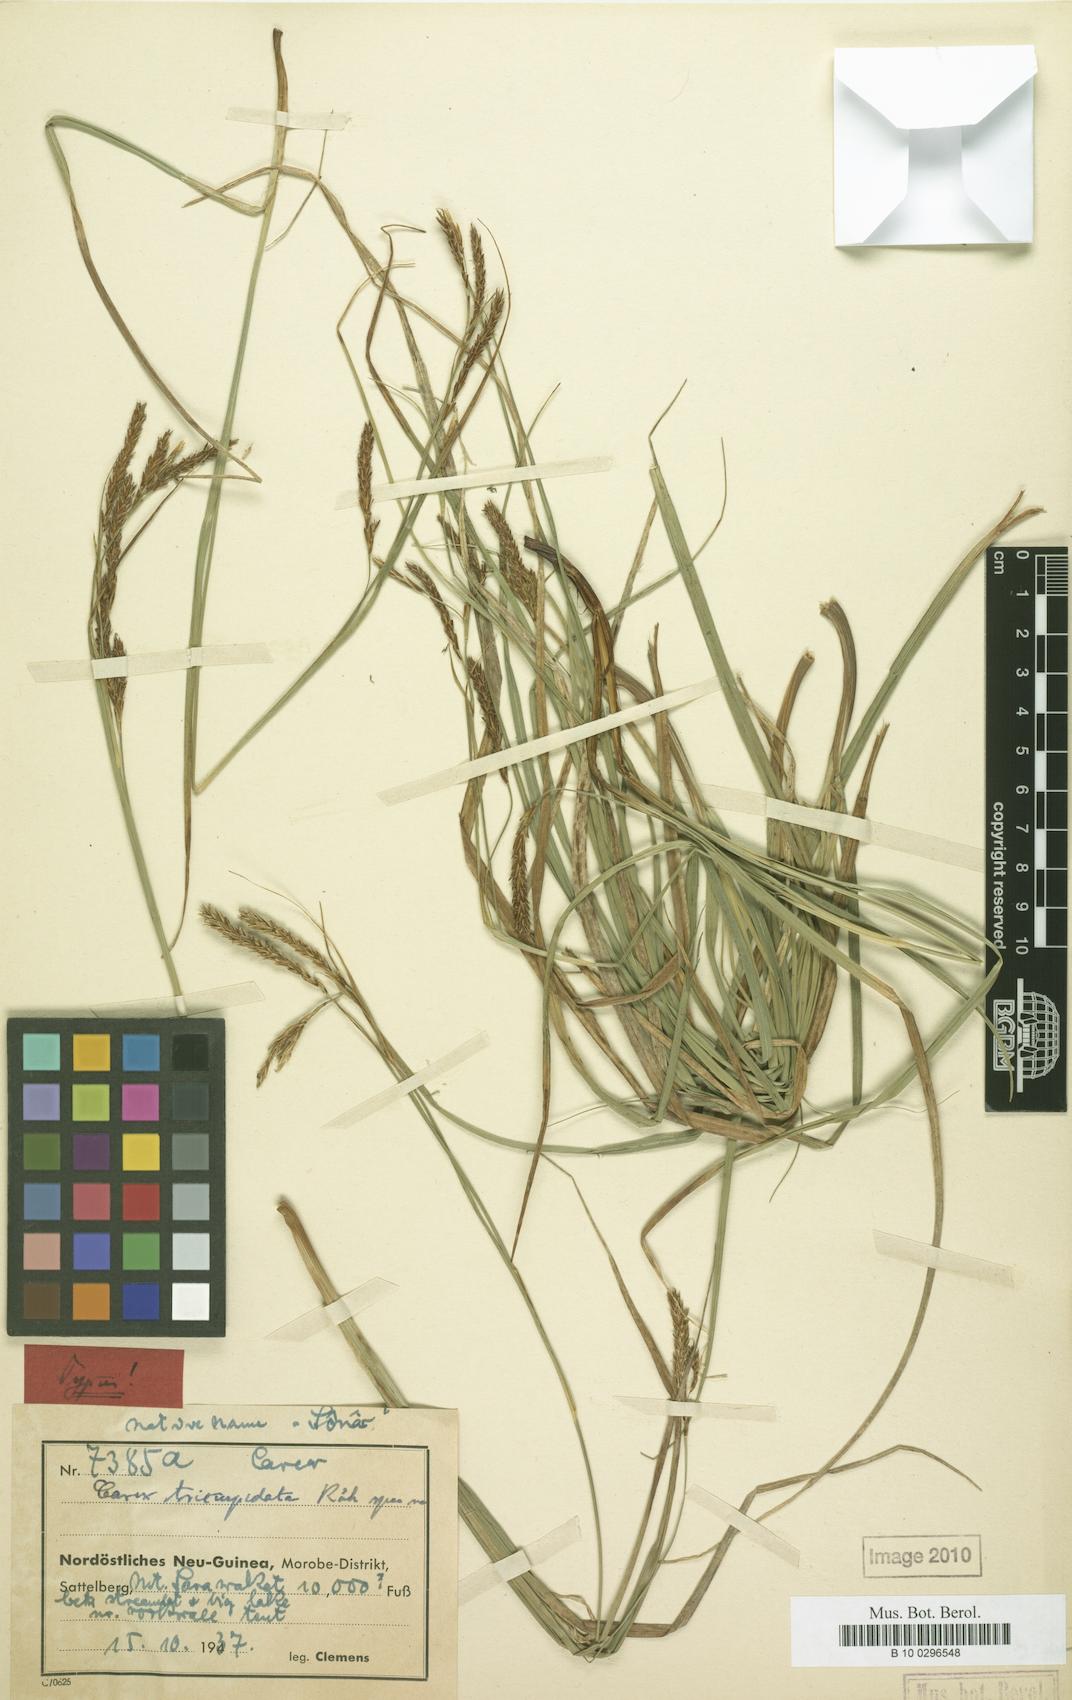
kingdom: Plantae
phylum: Tracheophyta
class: Liliopsida
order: Poales
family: Cyperaceae
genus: Carex
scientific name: Carex brachyanthera
